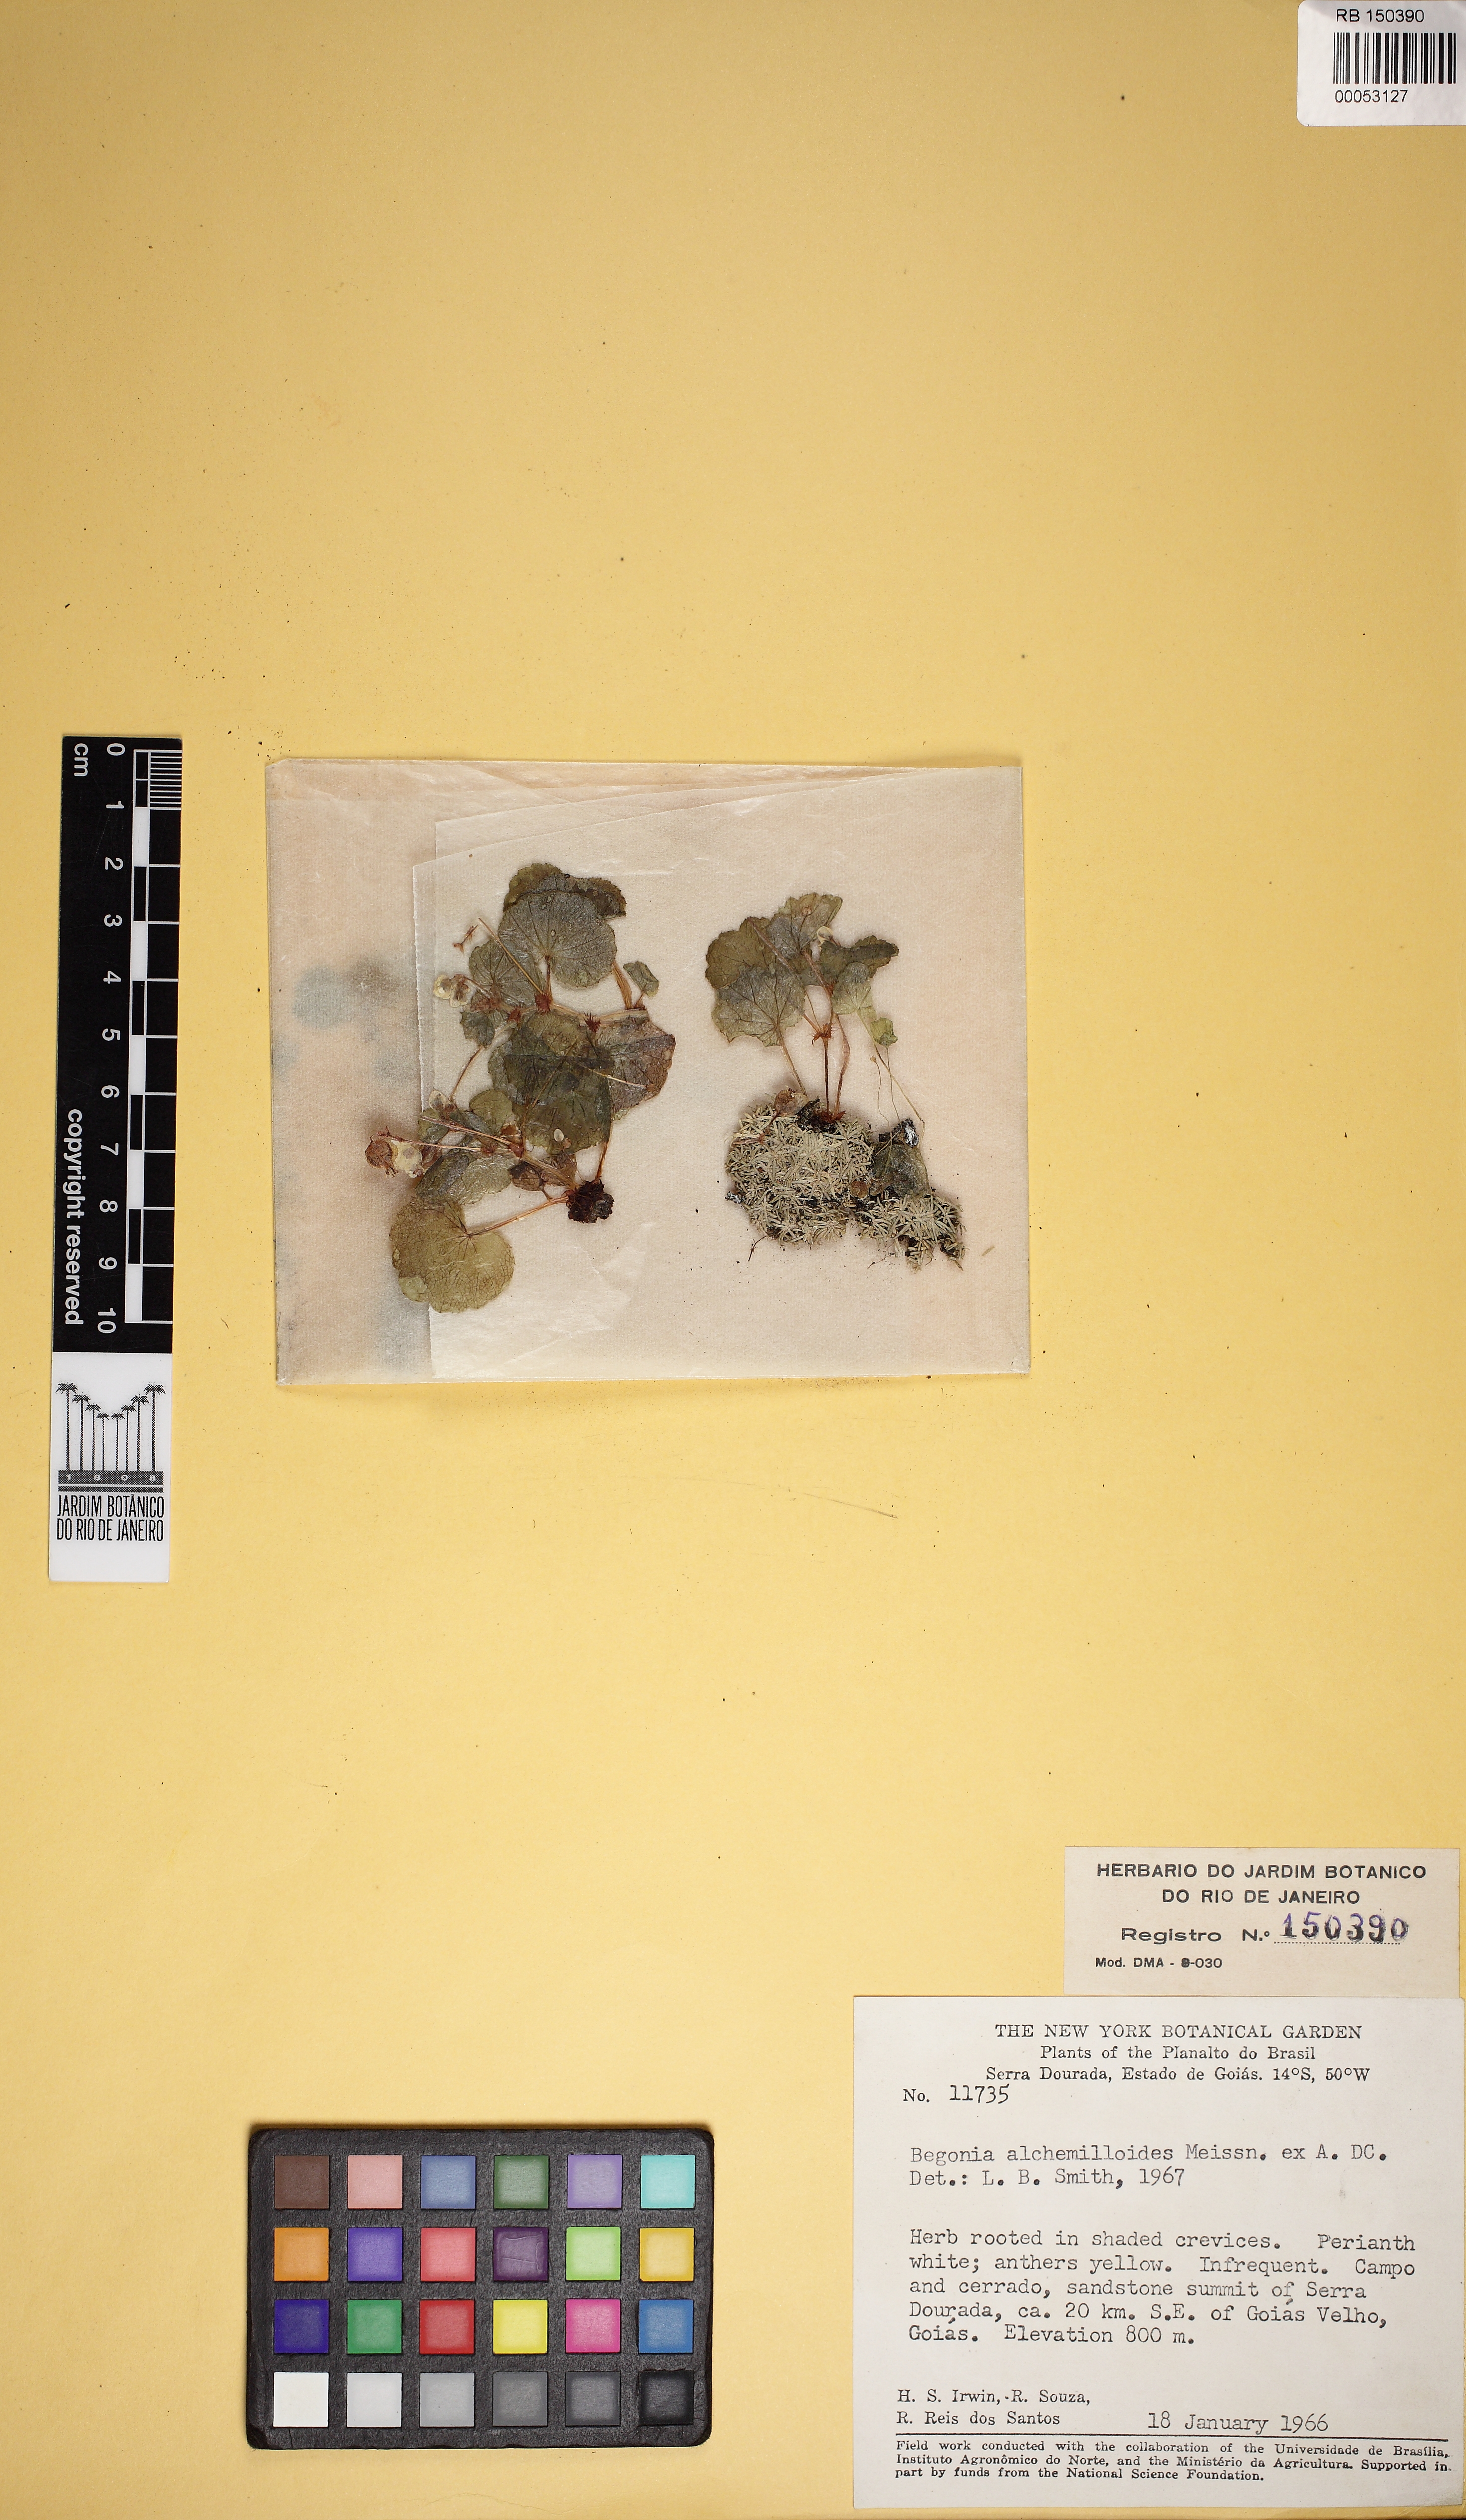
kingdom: Plantae
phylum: Tracheophyta
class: Magnoliopsida
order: Cucurbitales
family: Begoniaceae
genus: Begonia
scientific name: Begonia alchemilloides
